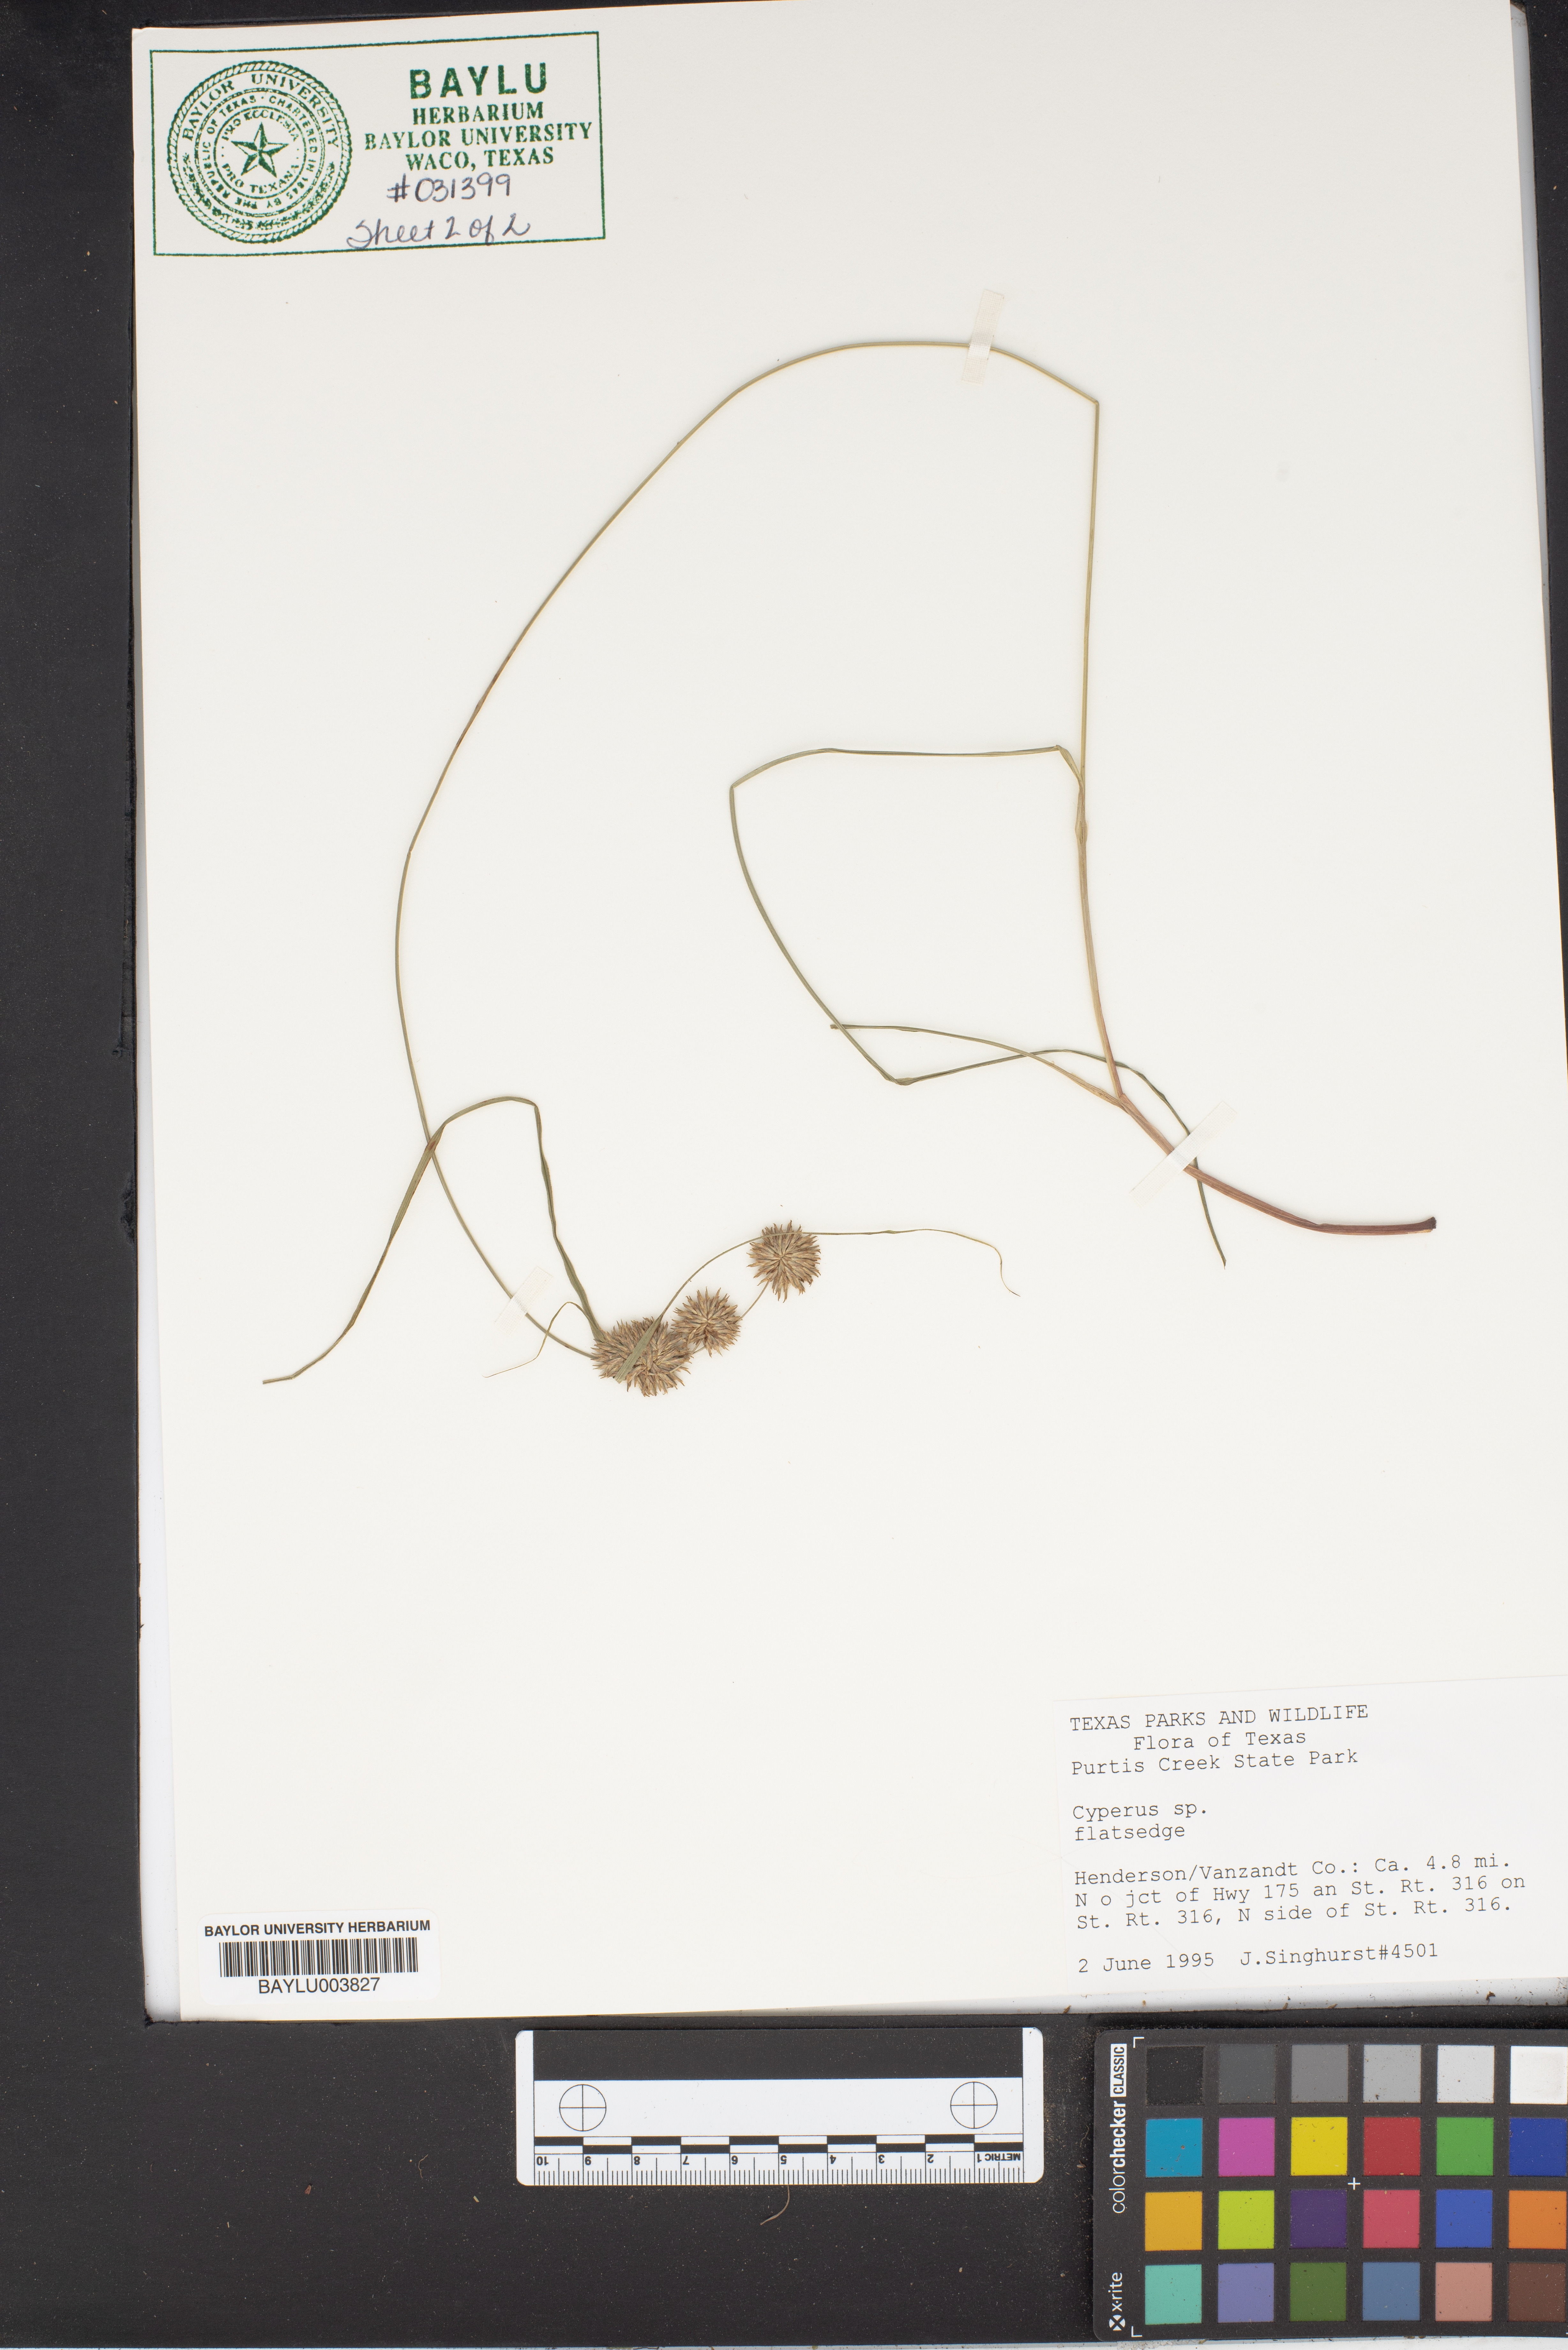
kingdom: Plantae
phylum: Tracheophyta
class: Liliopsida
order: Poales
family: Cyperaceae
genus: Cyperus
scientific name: Cyperus
